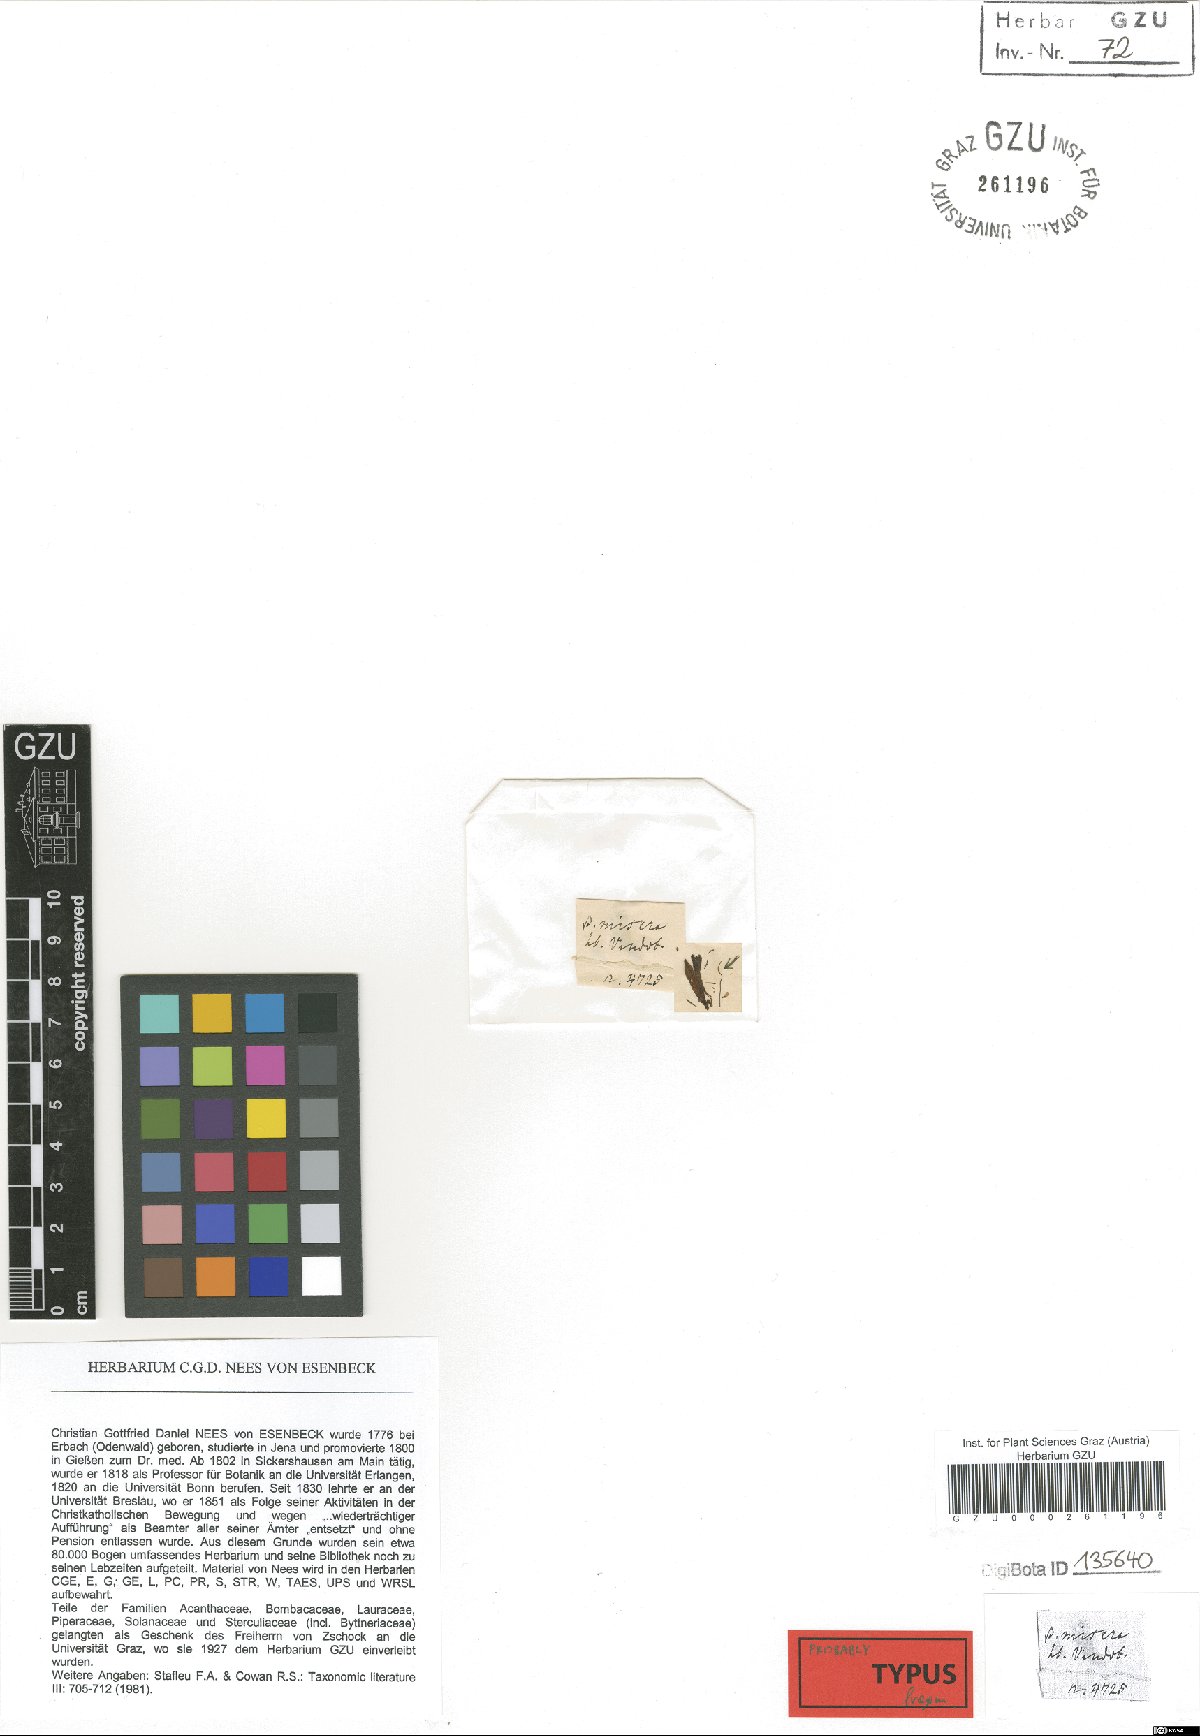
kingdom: Plantae
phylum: Tracheophyta
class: Magnoliopsida
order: Lamiales
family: Acanthaceae
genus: Dianthera
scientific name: Dianthera longiflora
